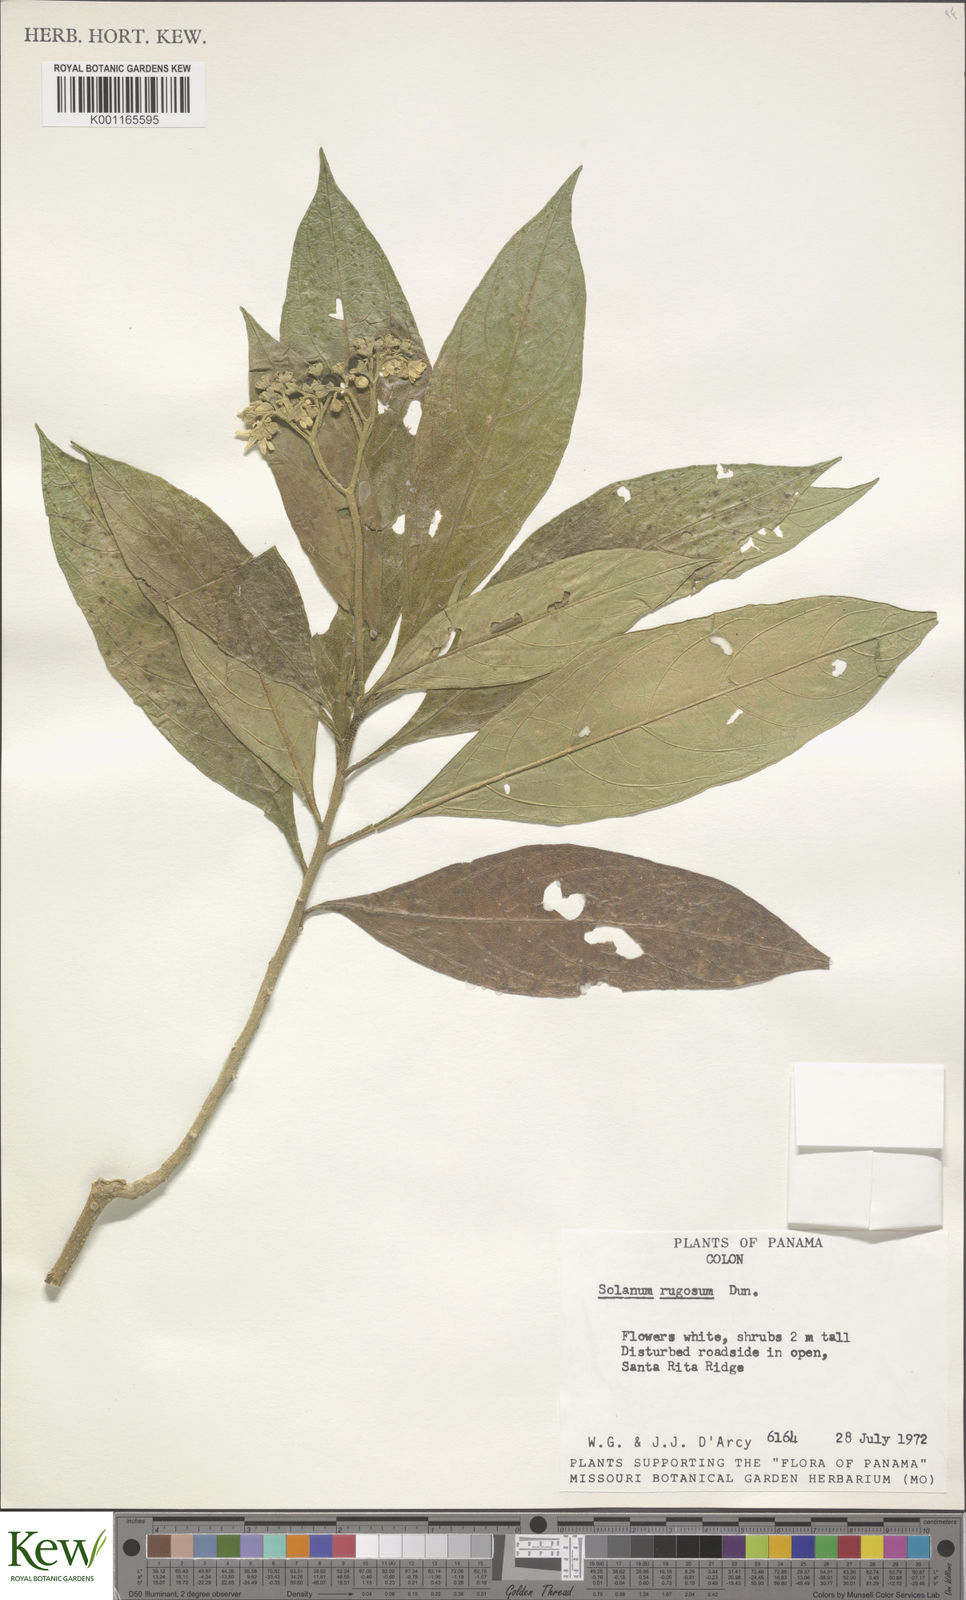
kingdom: Plantae
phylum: Tracheophyta
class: Magnoliopsida
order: Solanales
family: Solanaceae
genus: Solanum
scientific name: Solanum rugosum
